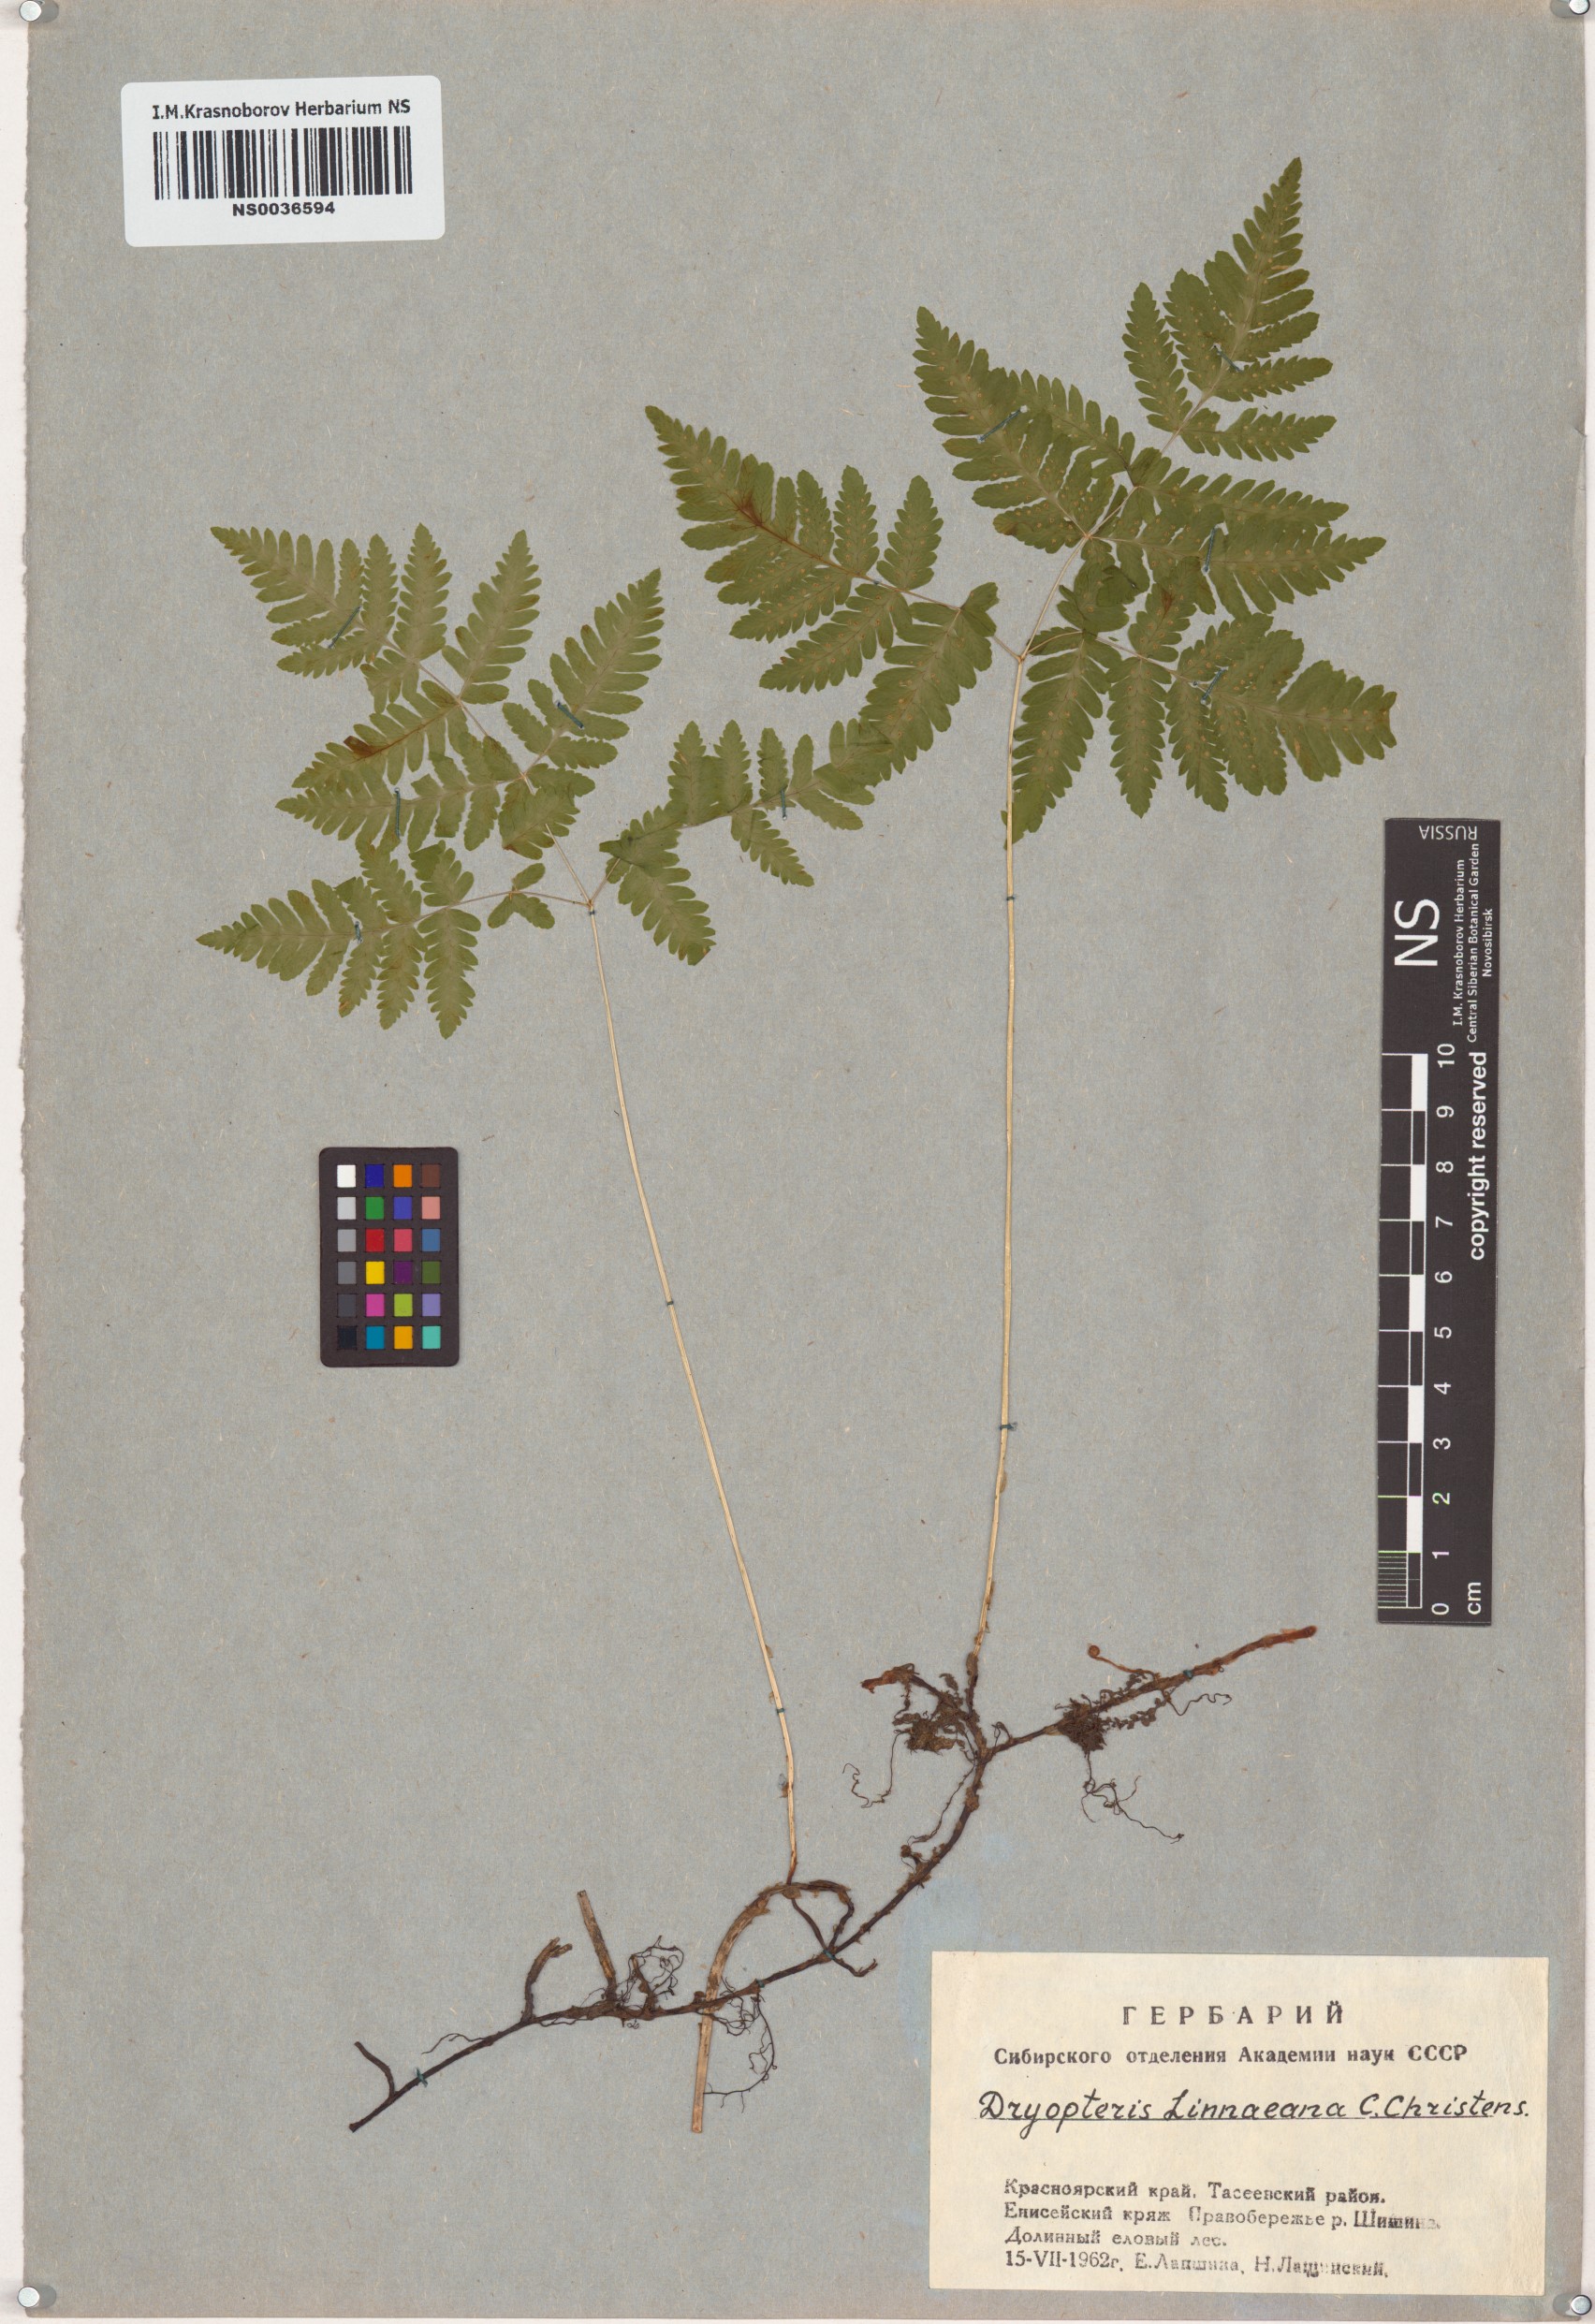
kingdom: Plantae
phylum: Tracheophyta
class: Polypodiopsida
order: Polypodiales
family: Cystopteridaceae
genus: Gymnocarpium
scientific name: Gymnocarpium dryopteris
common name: Oak fern
